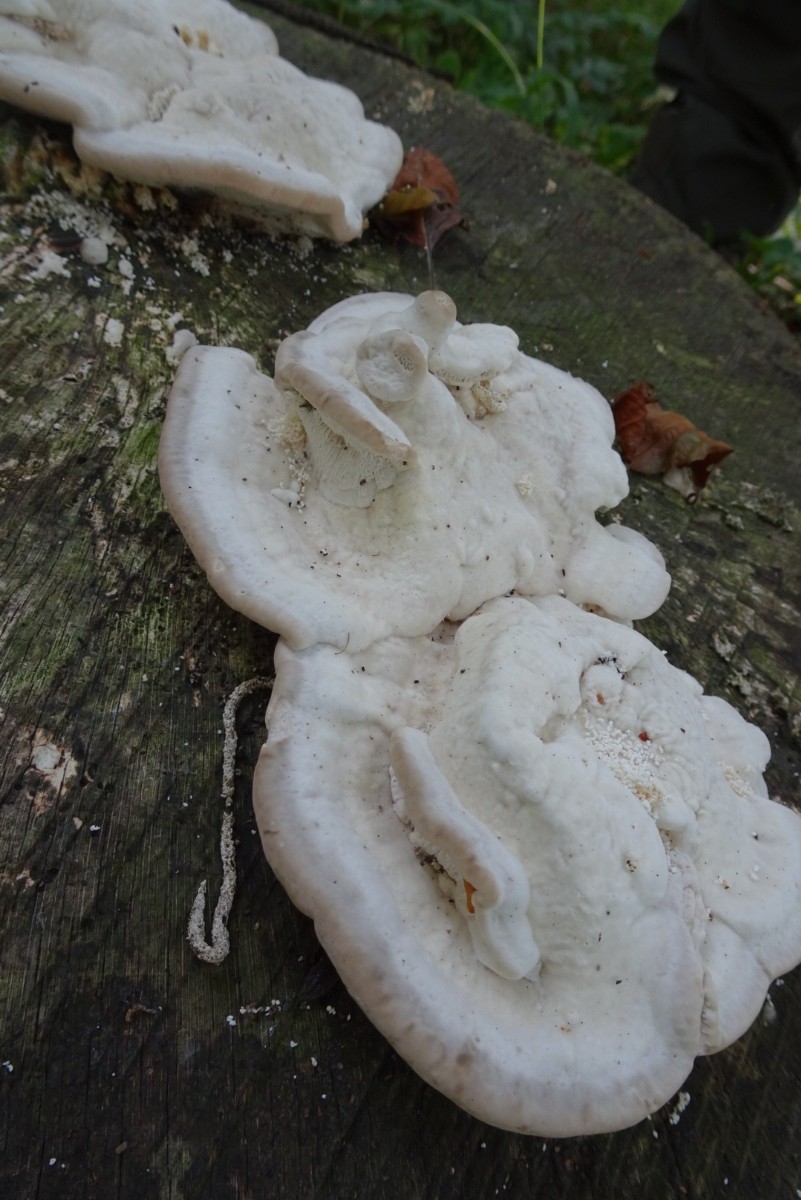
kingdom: Fungi
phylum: Basidiomycota
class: Agaricomycetes
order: Polyporales
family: Polyporaceae
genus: Trametes
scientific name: Trametes gibbosa
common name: puklet læderporesvamp
